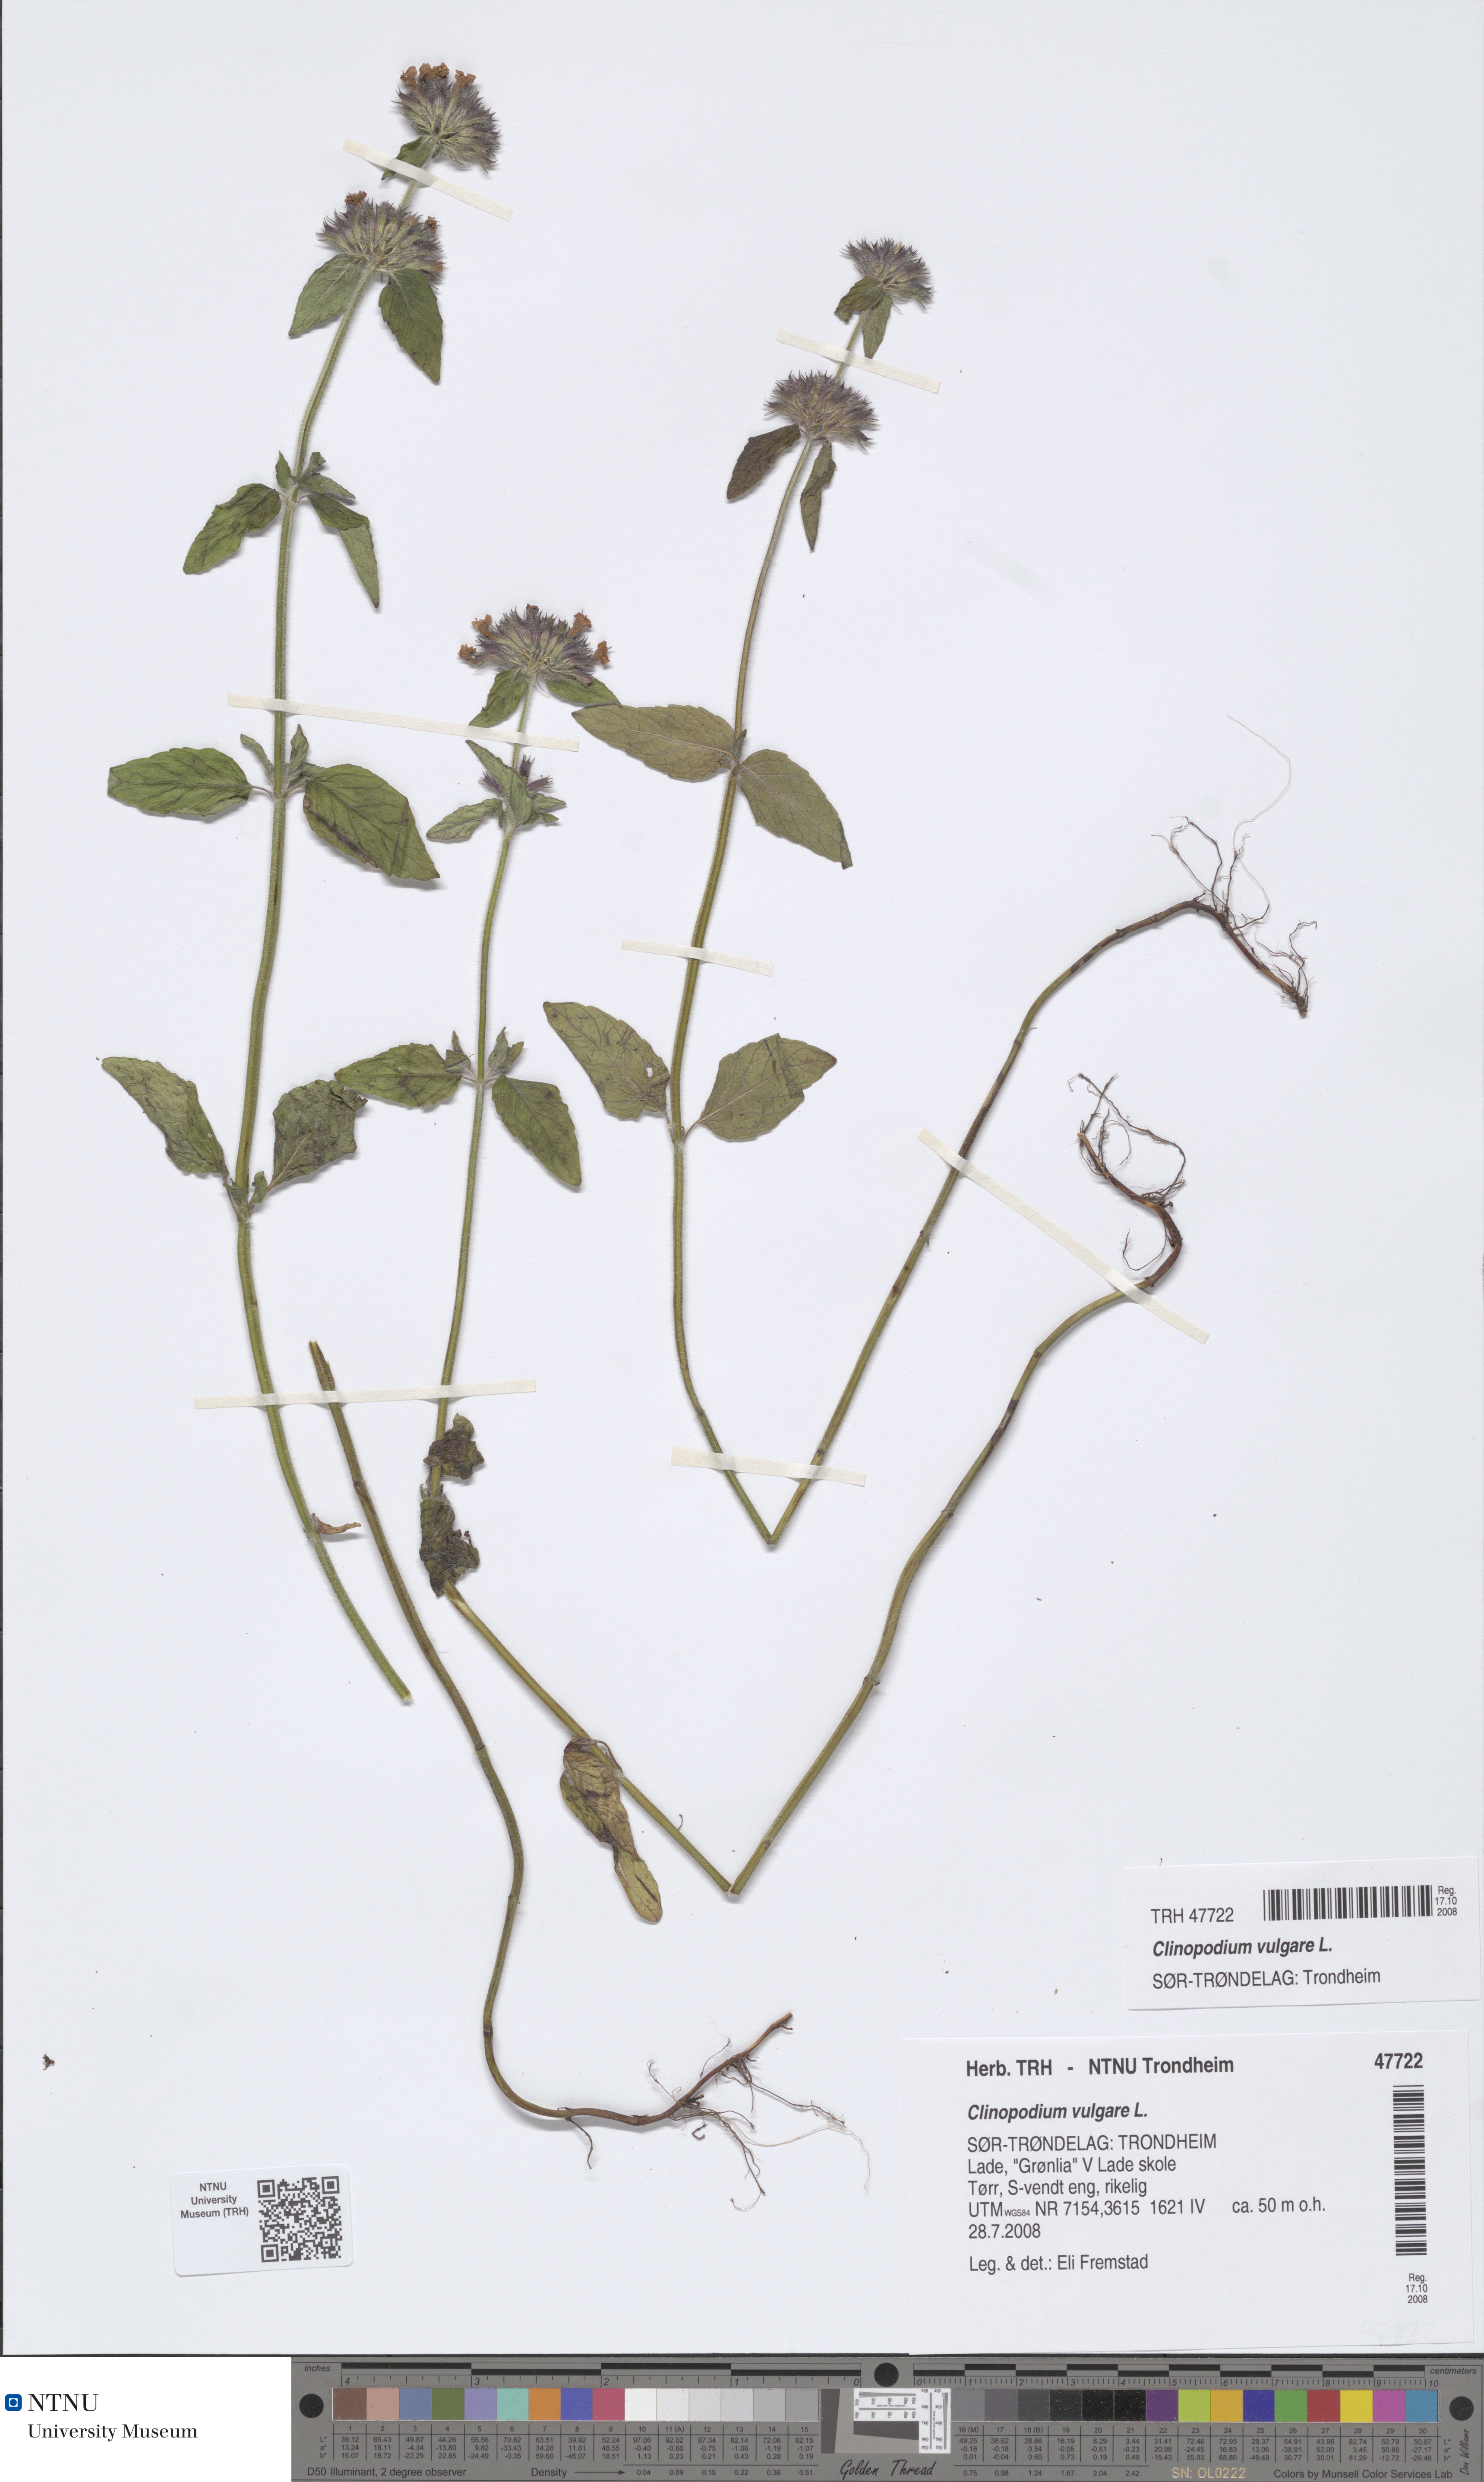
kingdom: Plantae
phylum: Tracheophyta
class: Magnoliopsida
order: Lamiales
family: Lamiaceae
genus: Clinopodium
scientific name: Clinopodium vulgare
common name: Wild basil
